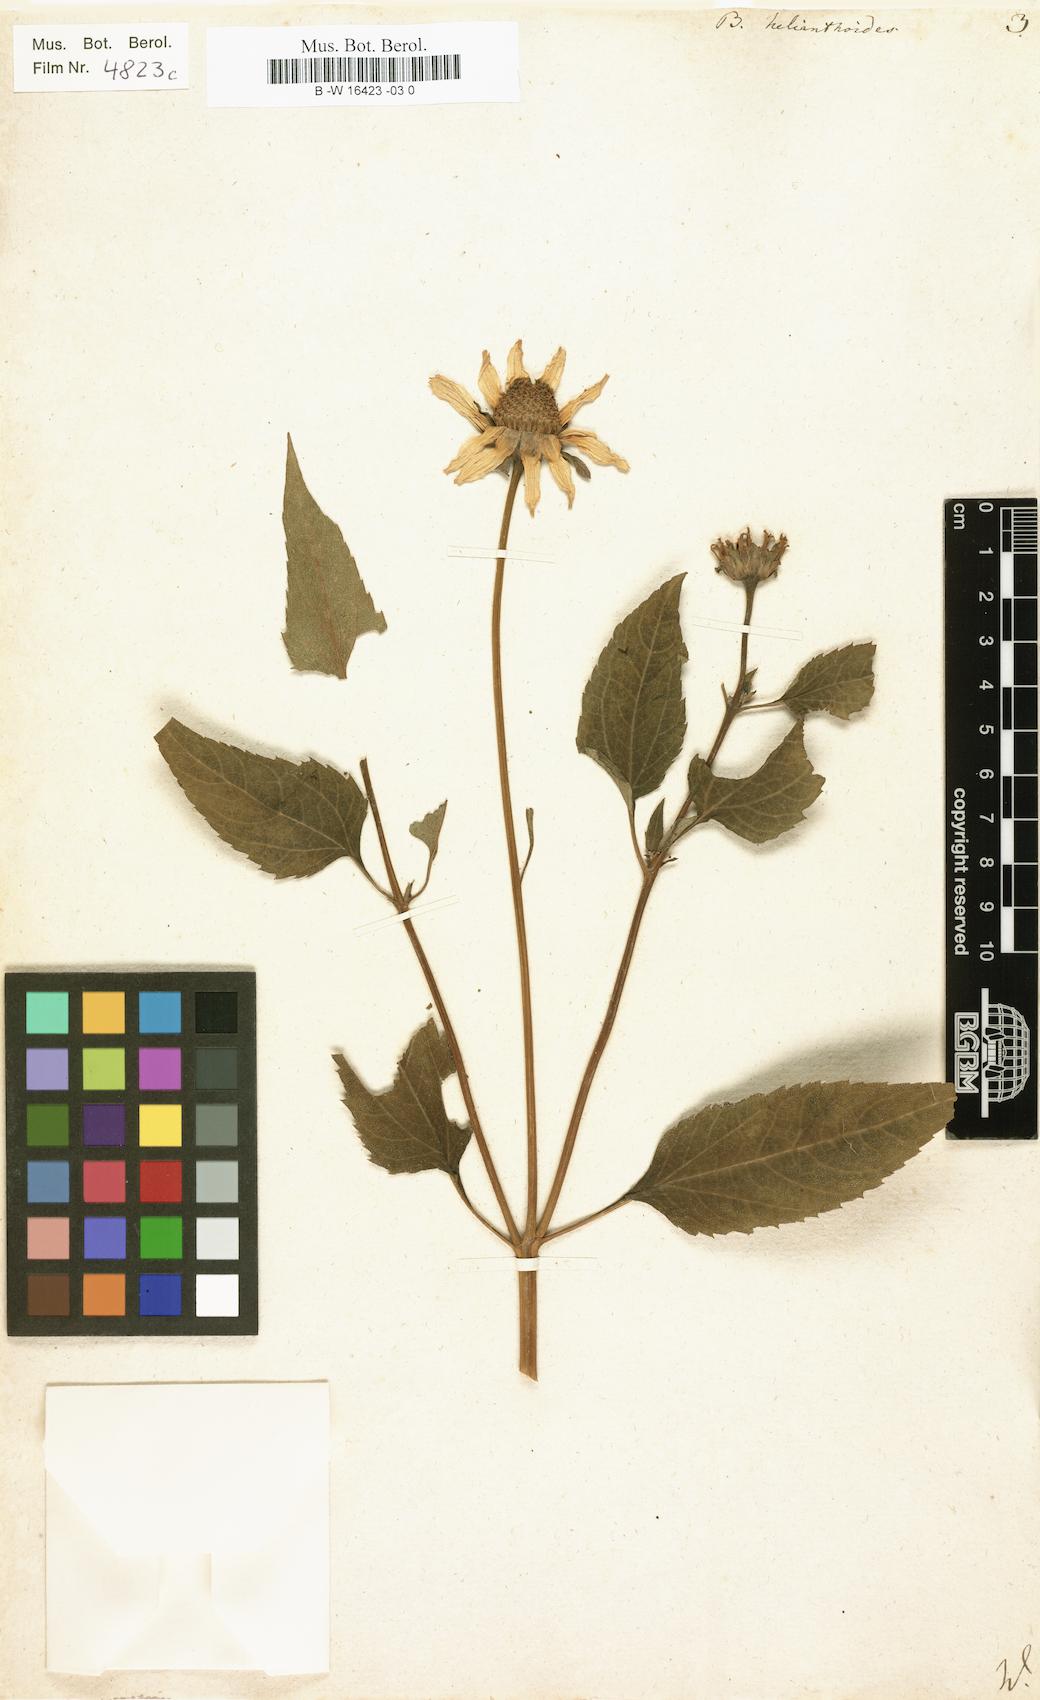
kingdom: Plantae
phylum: Tracheophyta
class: Magnoliopsida
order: Asterales
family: Asteraceae
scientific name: Asteraceae
